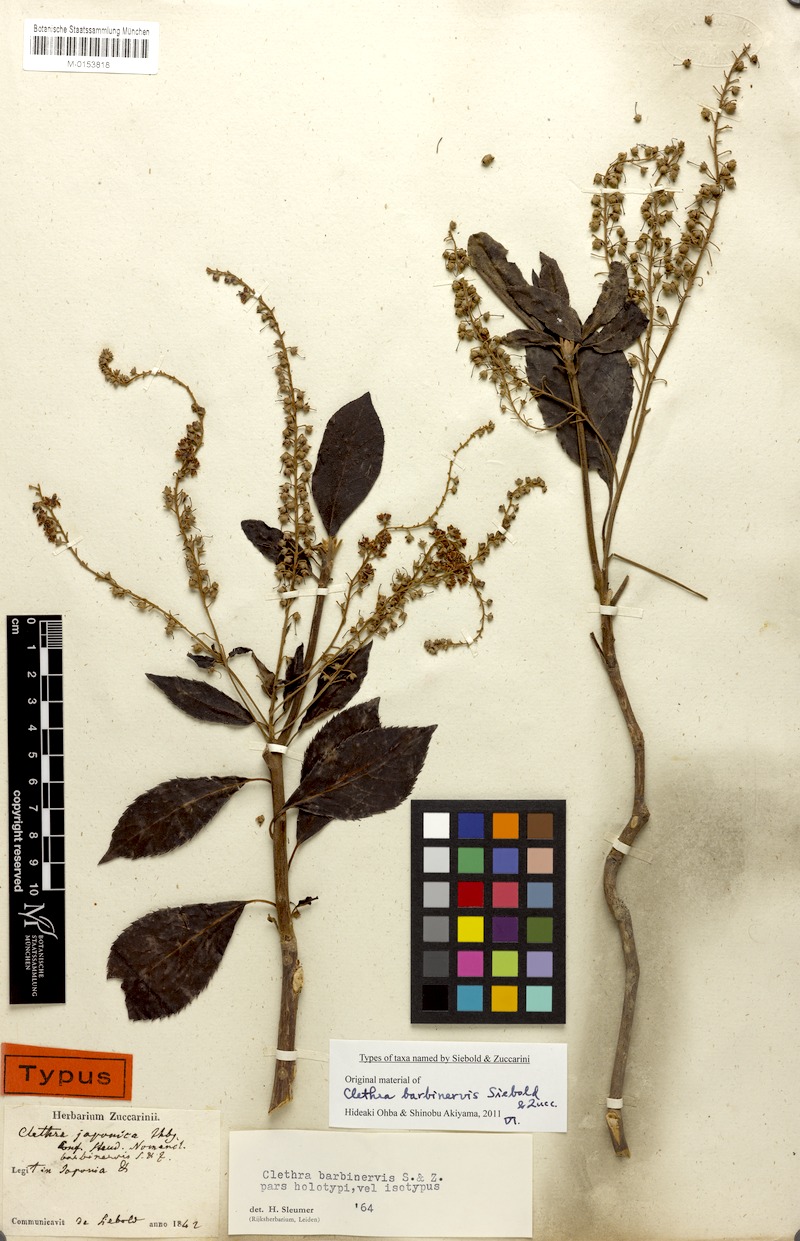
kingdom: Plantae
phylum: Tracheophyta
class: Magnoliopsida
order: Ericales
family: Clethraceae
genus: Clethra
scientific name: Clethra barbinervis
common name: Japanese clethra
